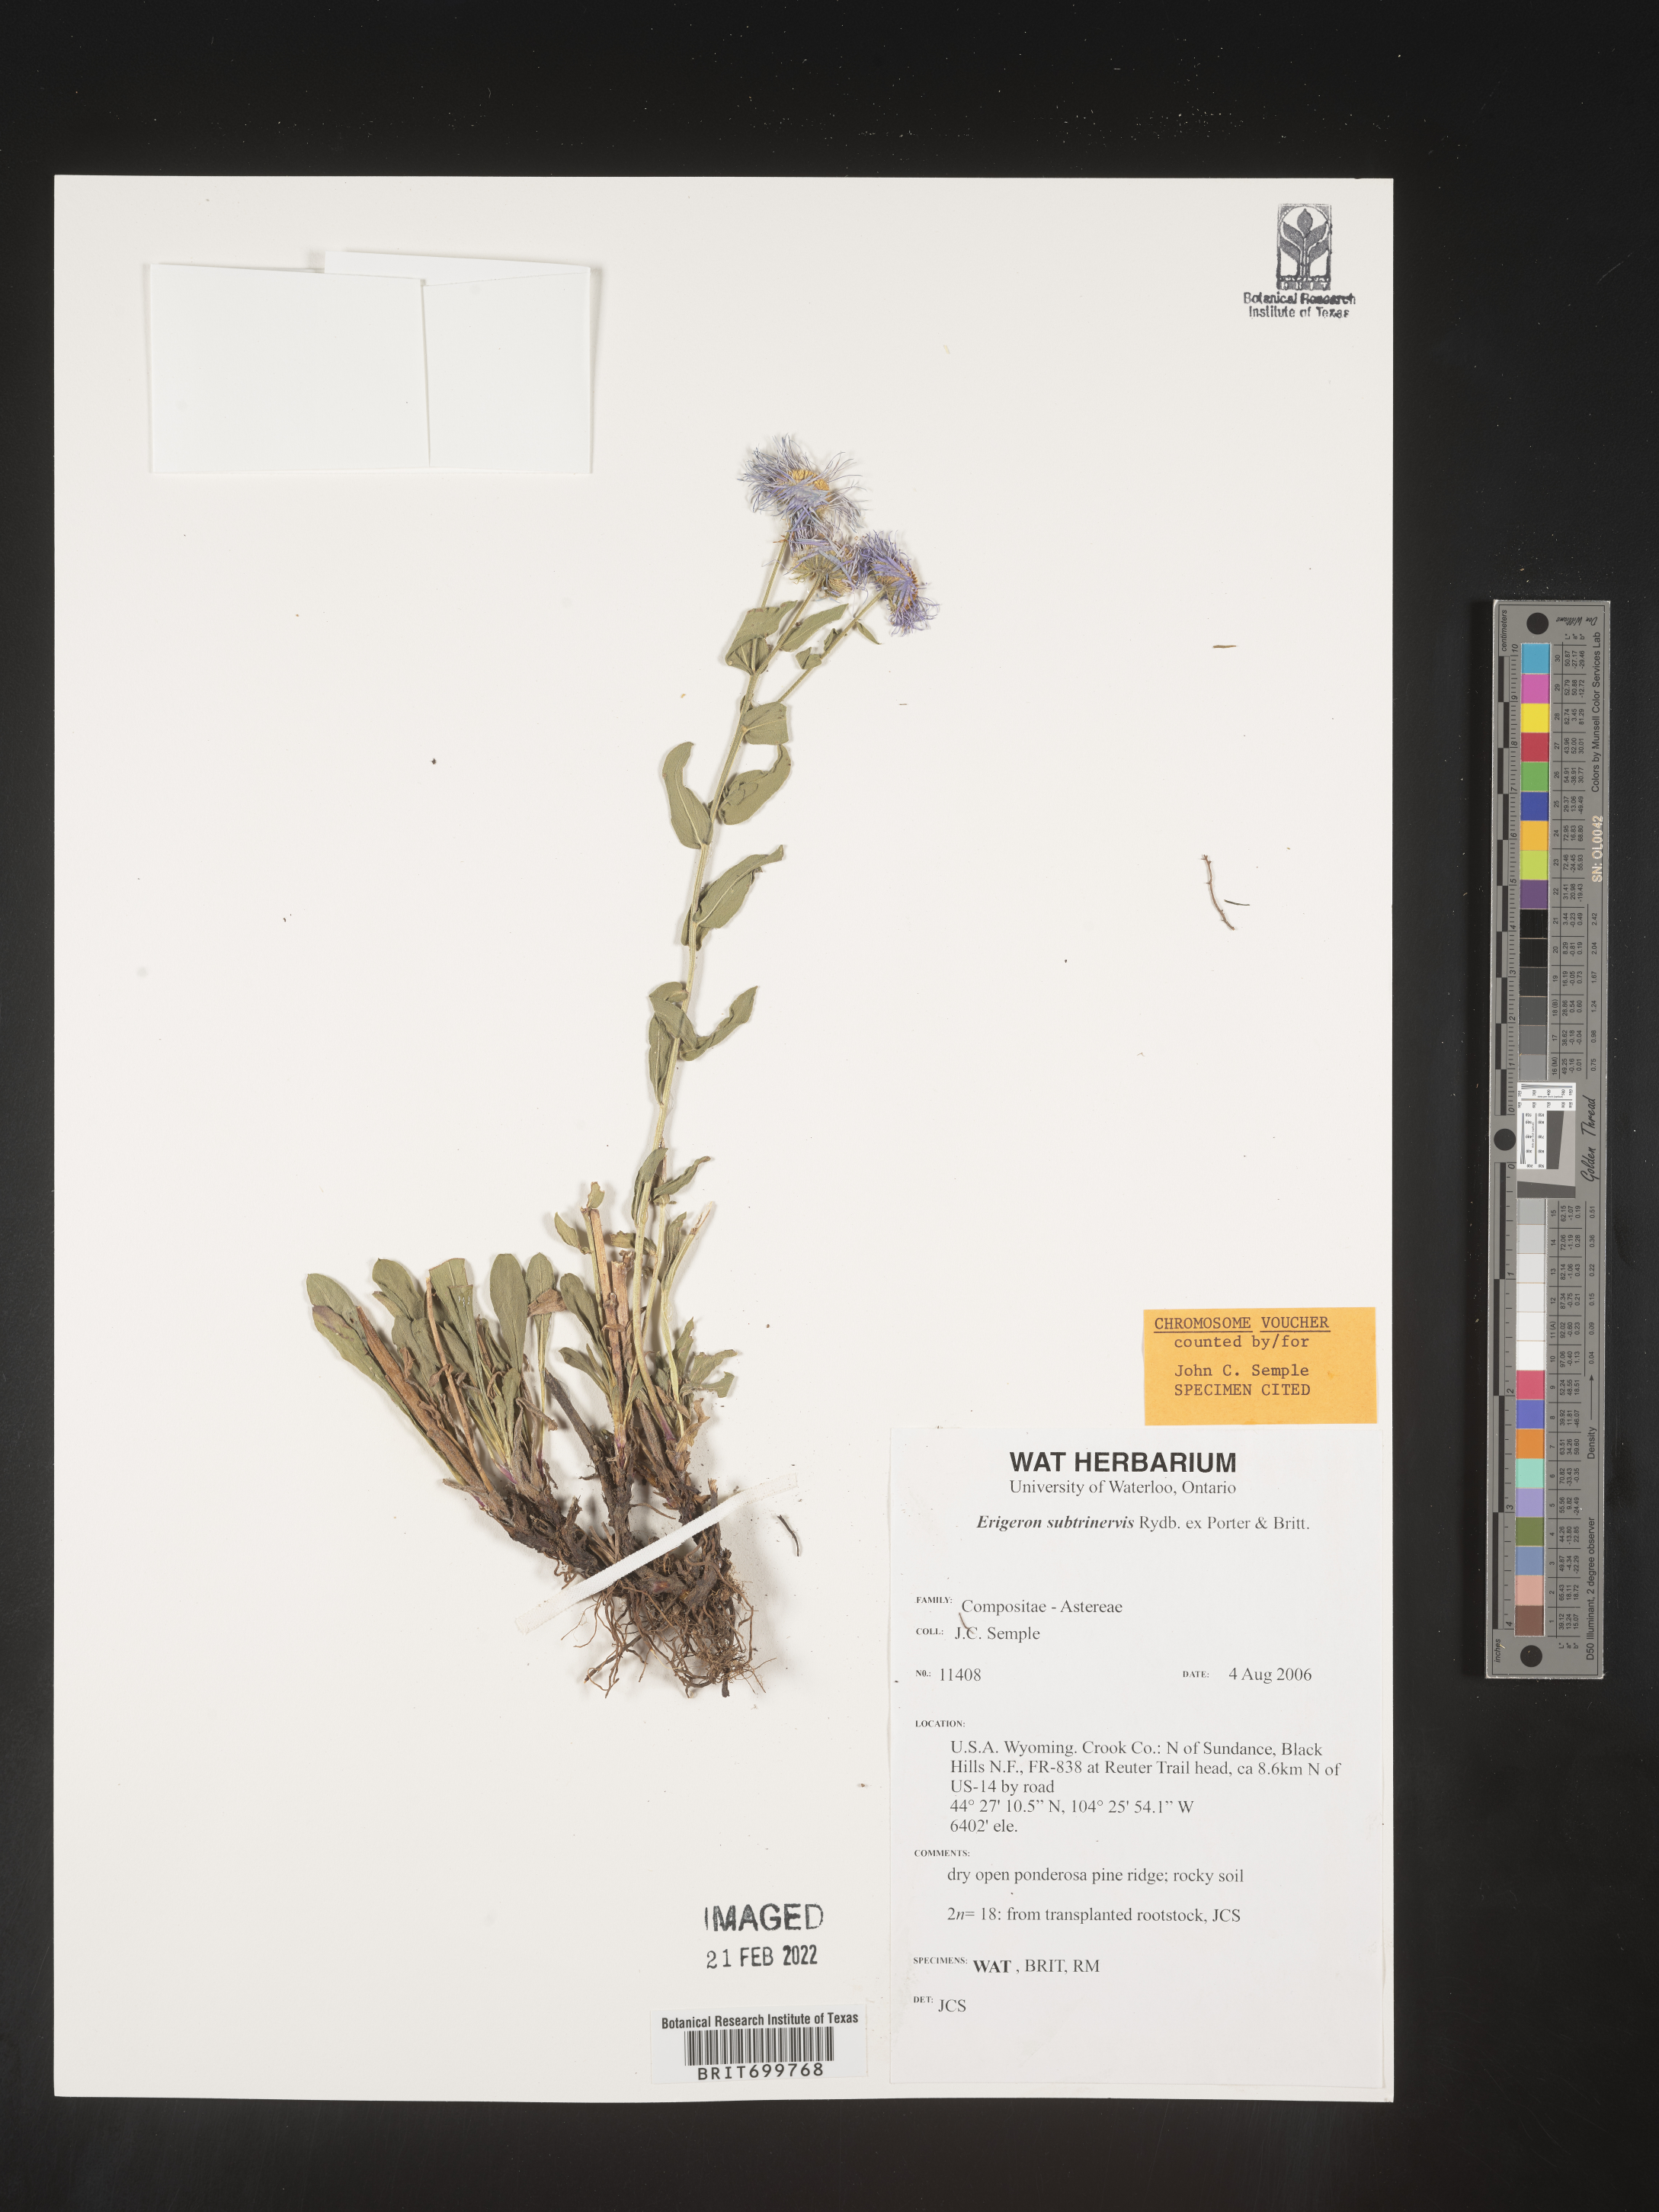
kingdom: Plantae
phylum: Tracheophyta
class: Magnoliopsida
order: Asterales
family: Asteraceae
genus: Erigeron
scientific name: Erigeron subtrinervis
